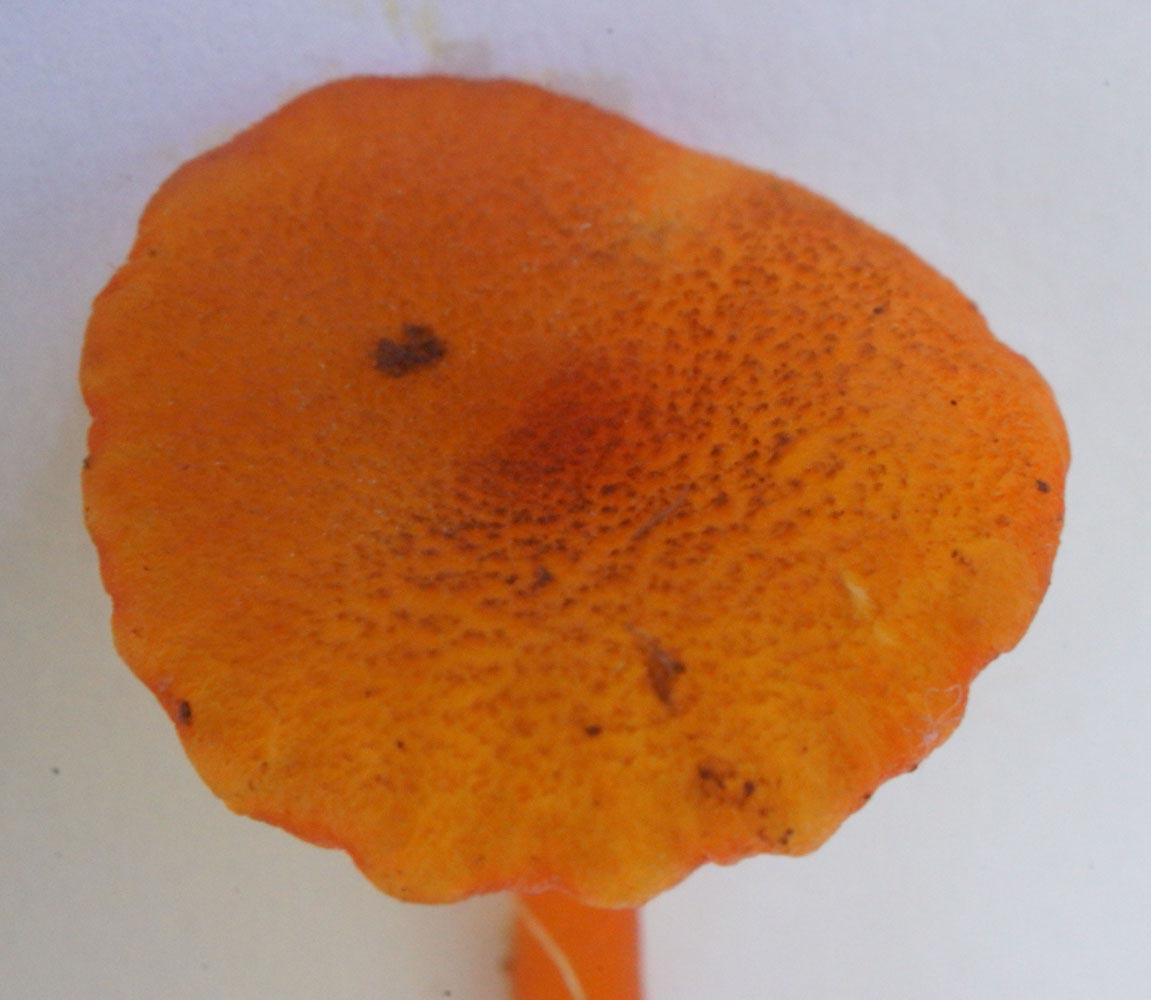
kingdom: Fungi
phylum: Basidiomycota
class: Agaricomycetes
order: Agaricales
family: Hygrophoraceae
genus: Hygrocybe
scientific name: Hygrocybe coccineocrenata
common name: tørvemos-vokshat
